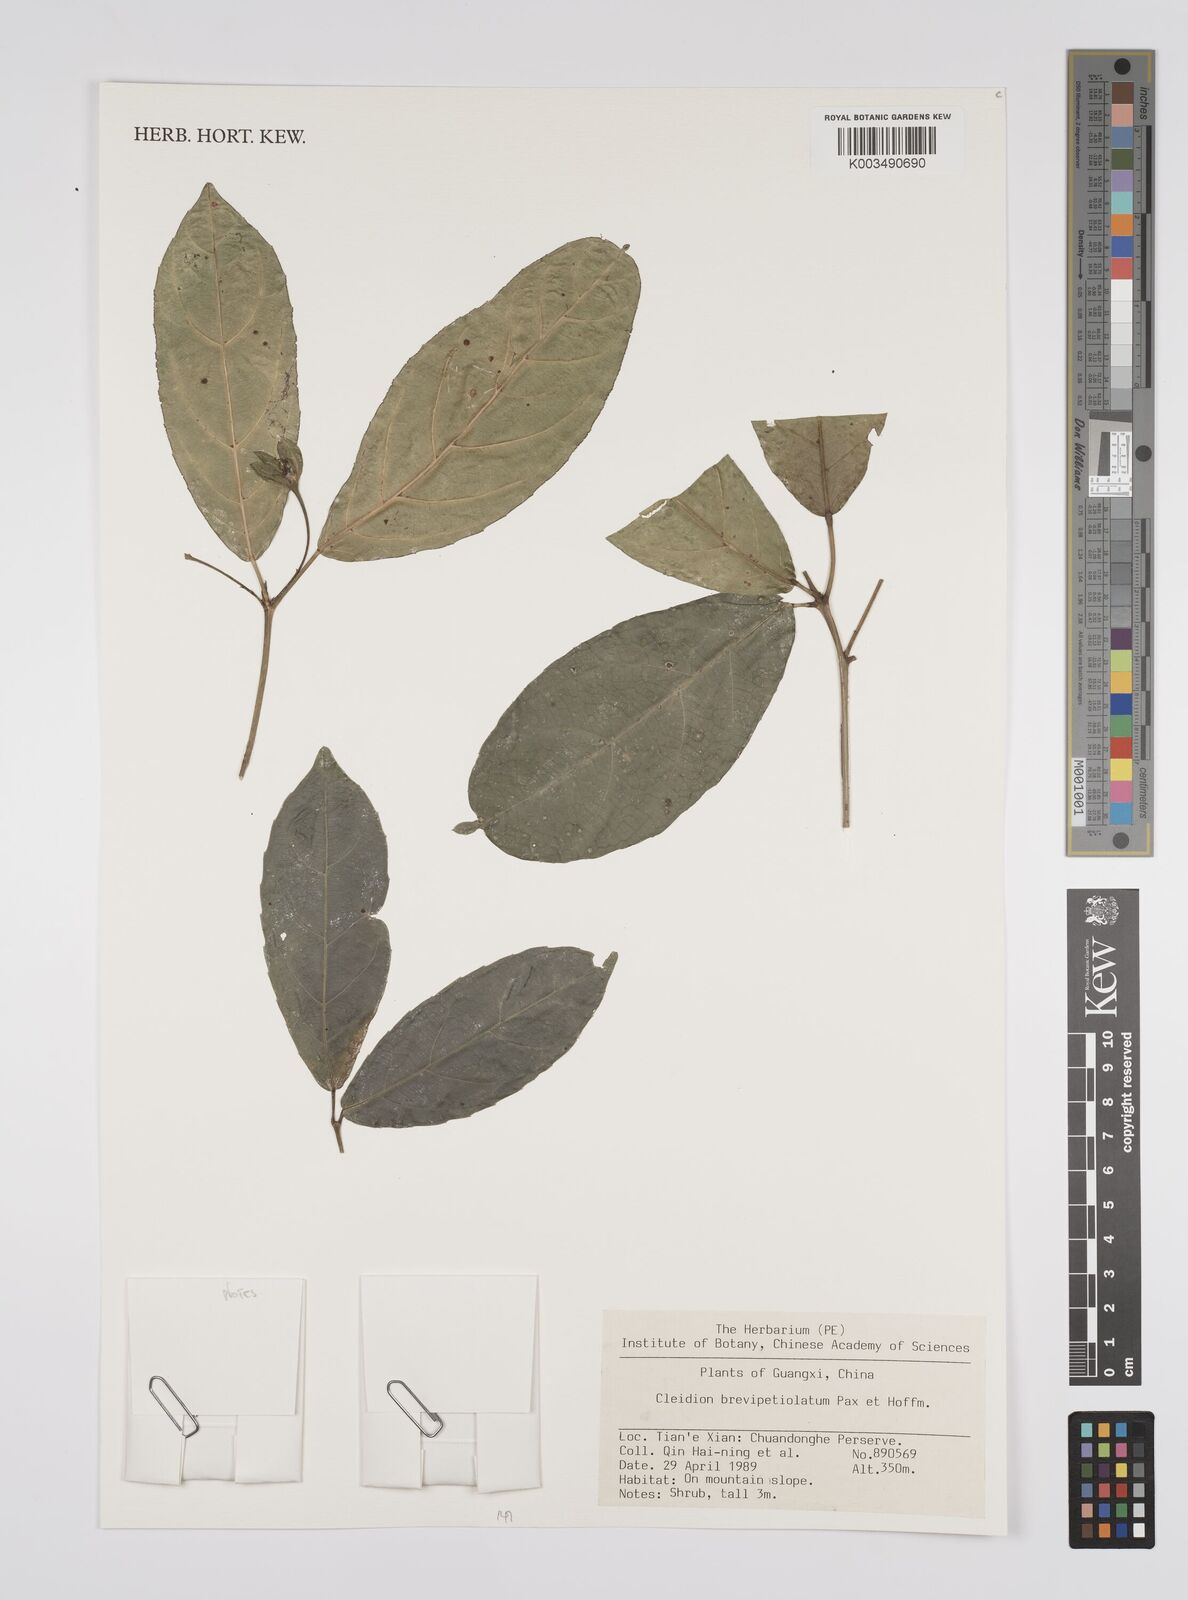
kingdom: Plantae
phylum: Tracheophyta
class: Magnoliopsida
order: Malpighiales
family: Euphorbiaceae
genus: Cleidion
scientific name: Cleidion brevipetiolatum
